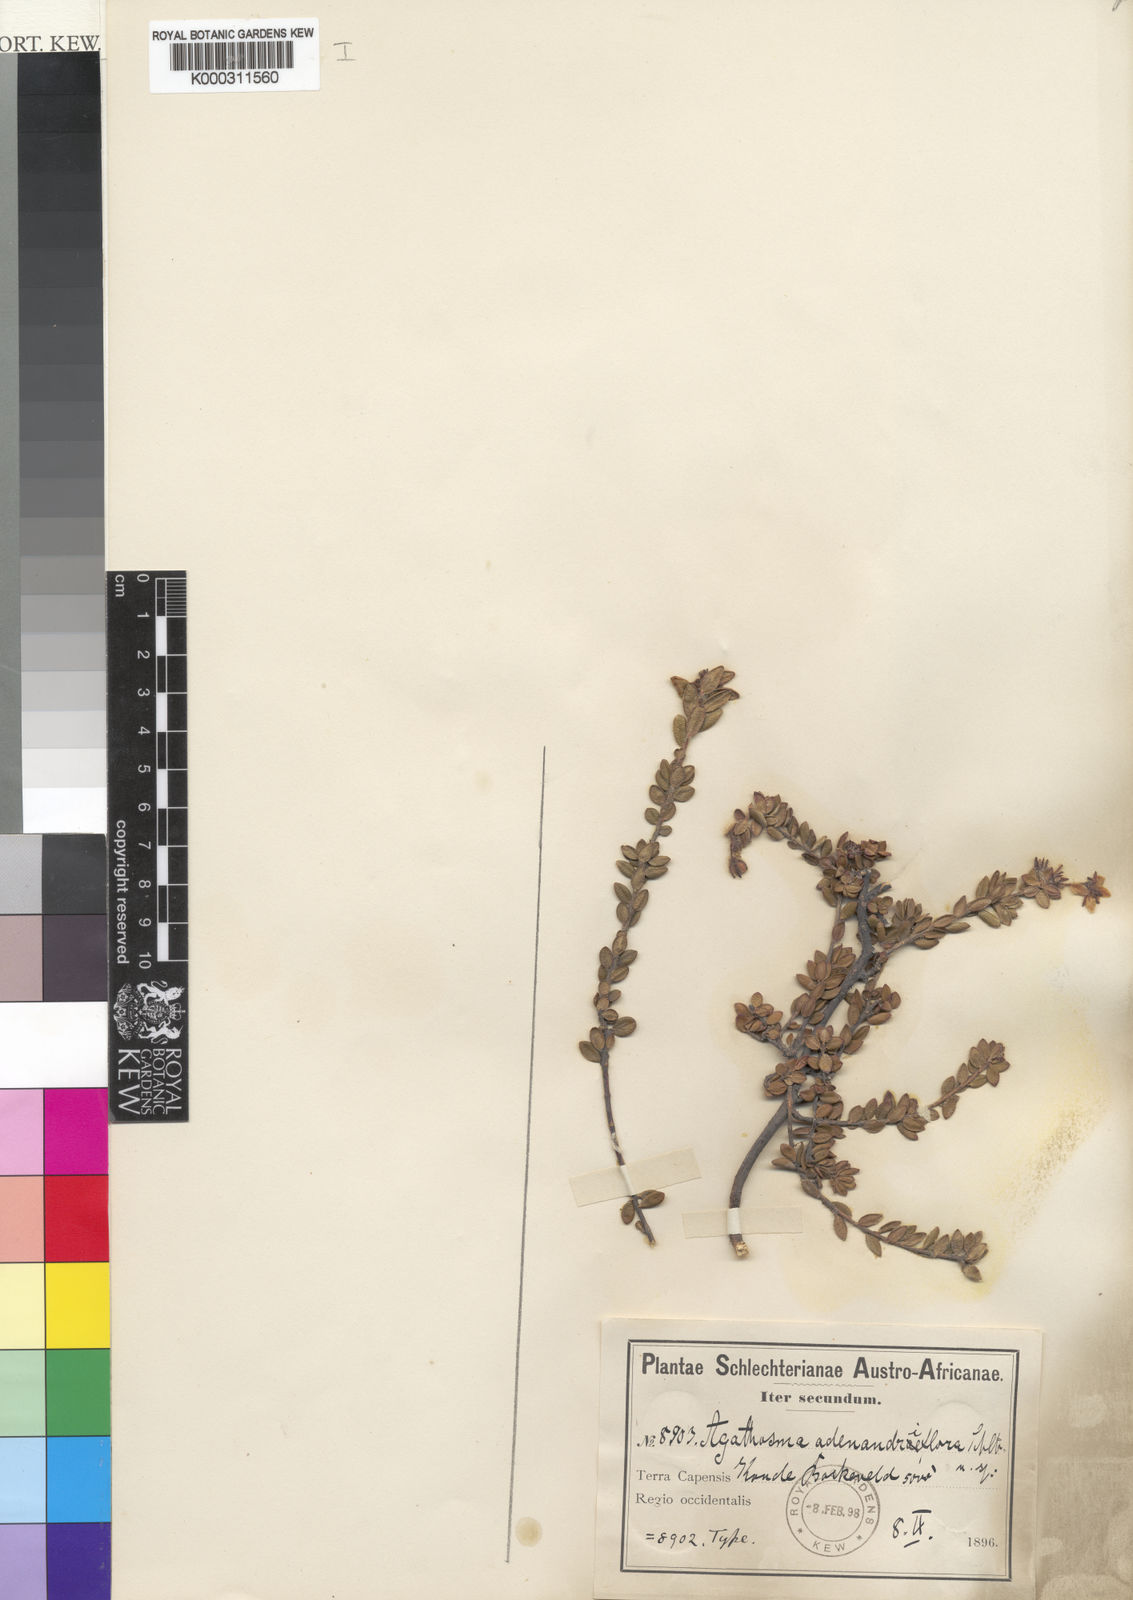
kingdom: Plantae
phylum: Tracheophyta
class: Magnoliopsida
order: Sapindales
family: Rutaceae
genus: Agathosma
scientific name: Agathosma adenandriflora
